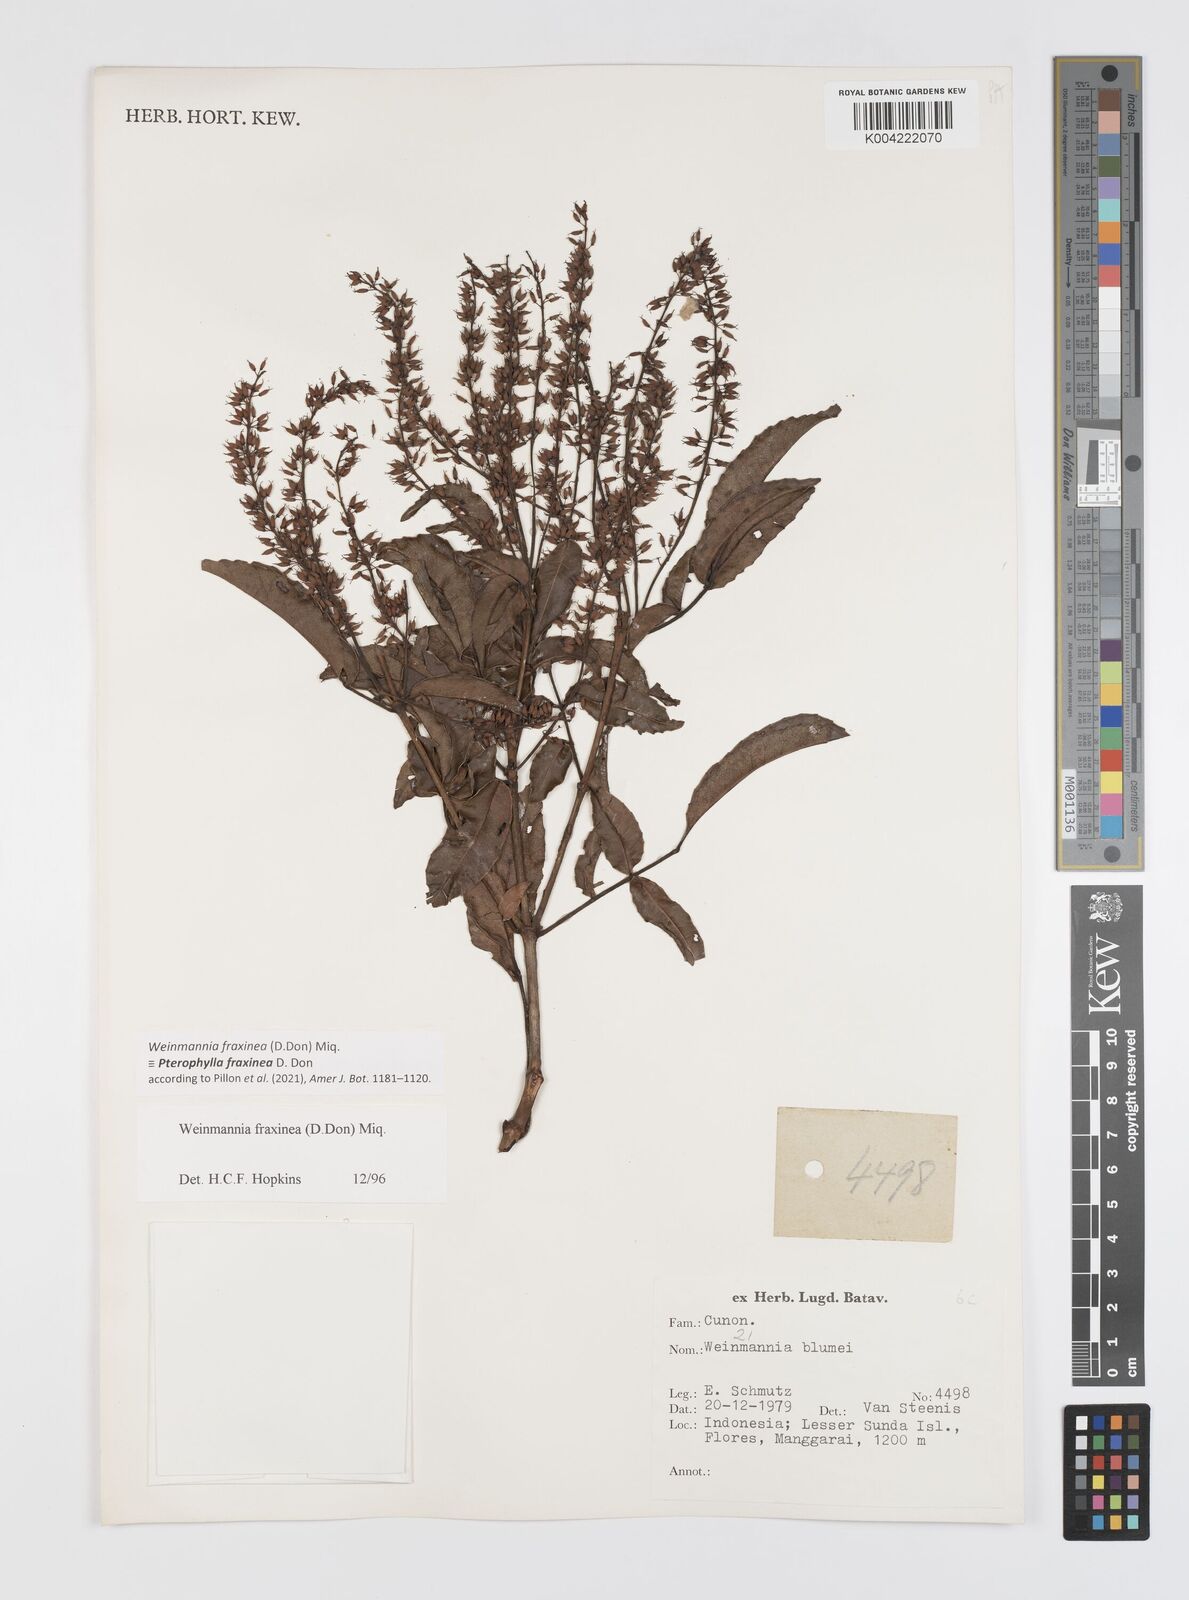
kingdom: Plantae
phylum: Tracheophyta
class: Magnoliopsida
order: Oxalidales
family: Cunoniaceae
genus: Pterophylla
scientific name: Pterophylla fraxinea
